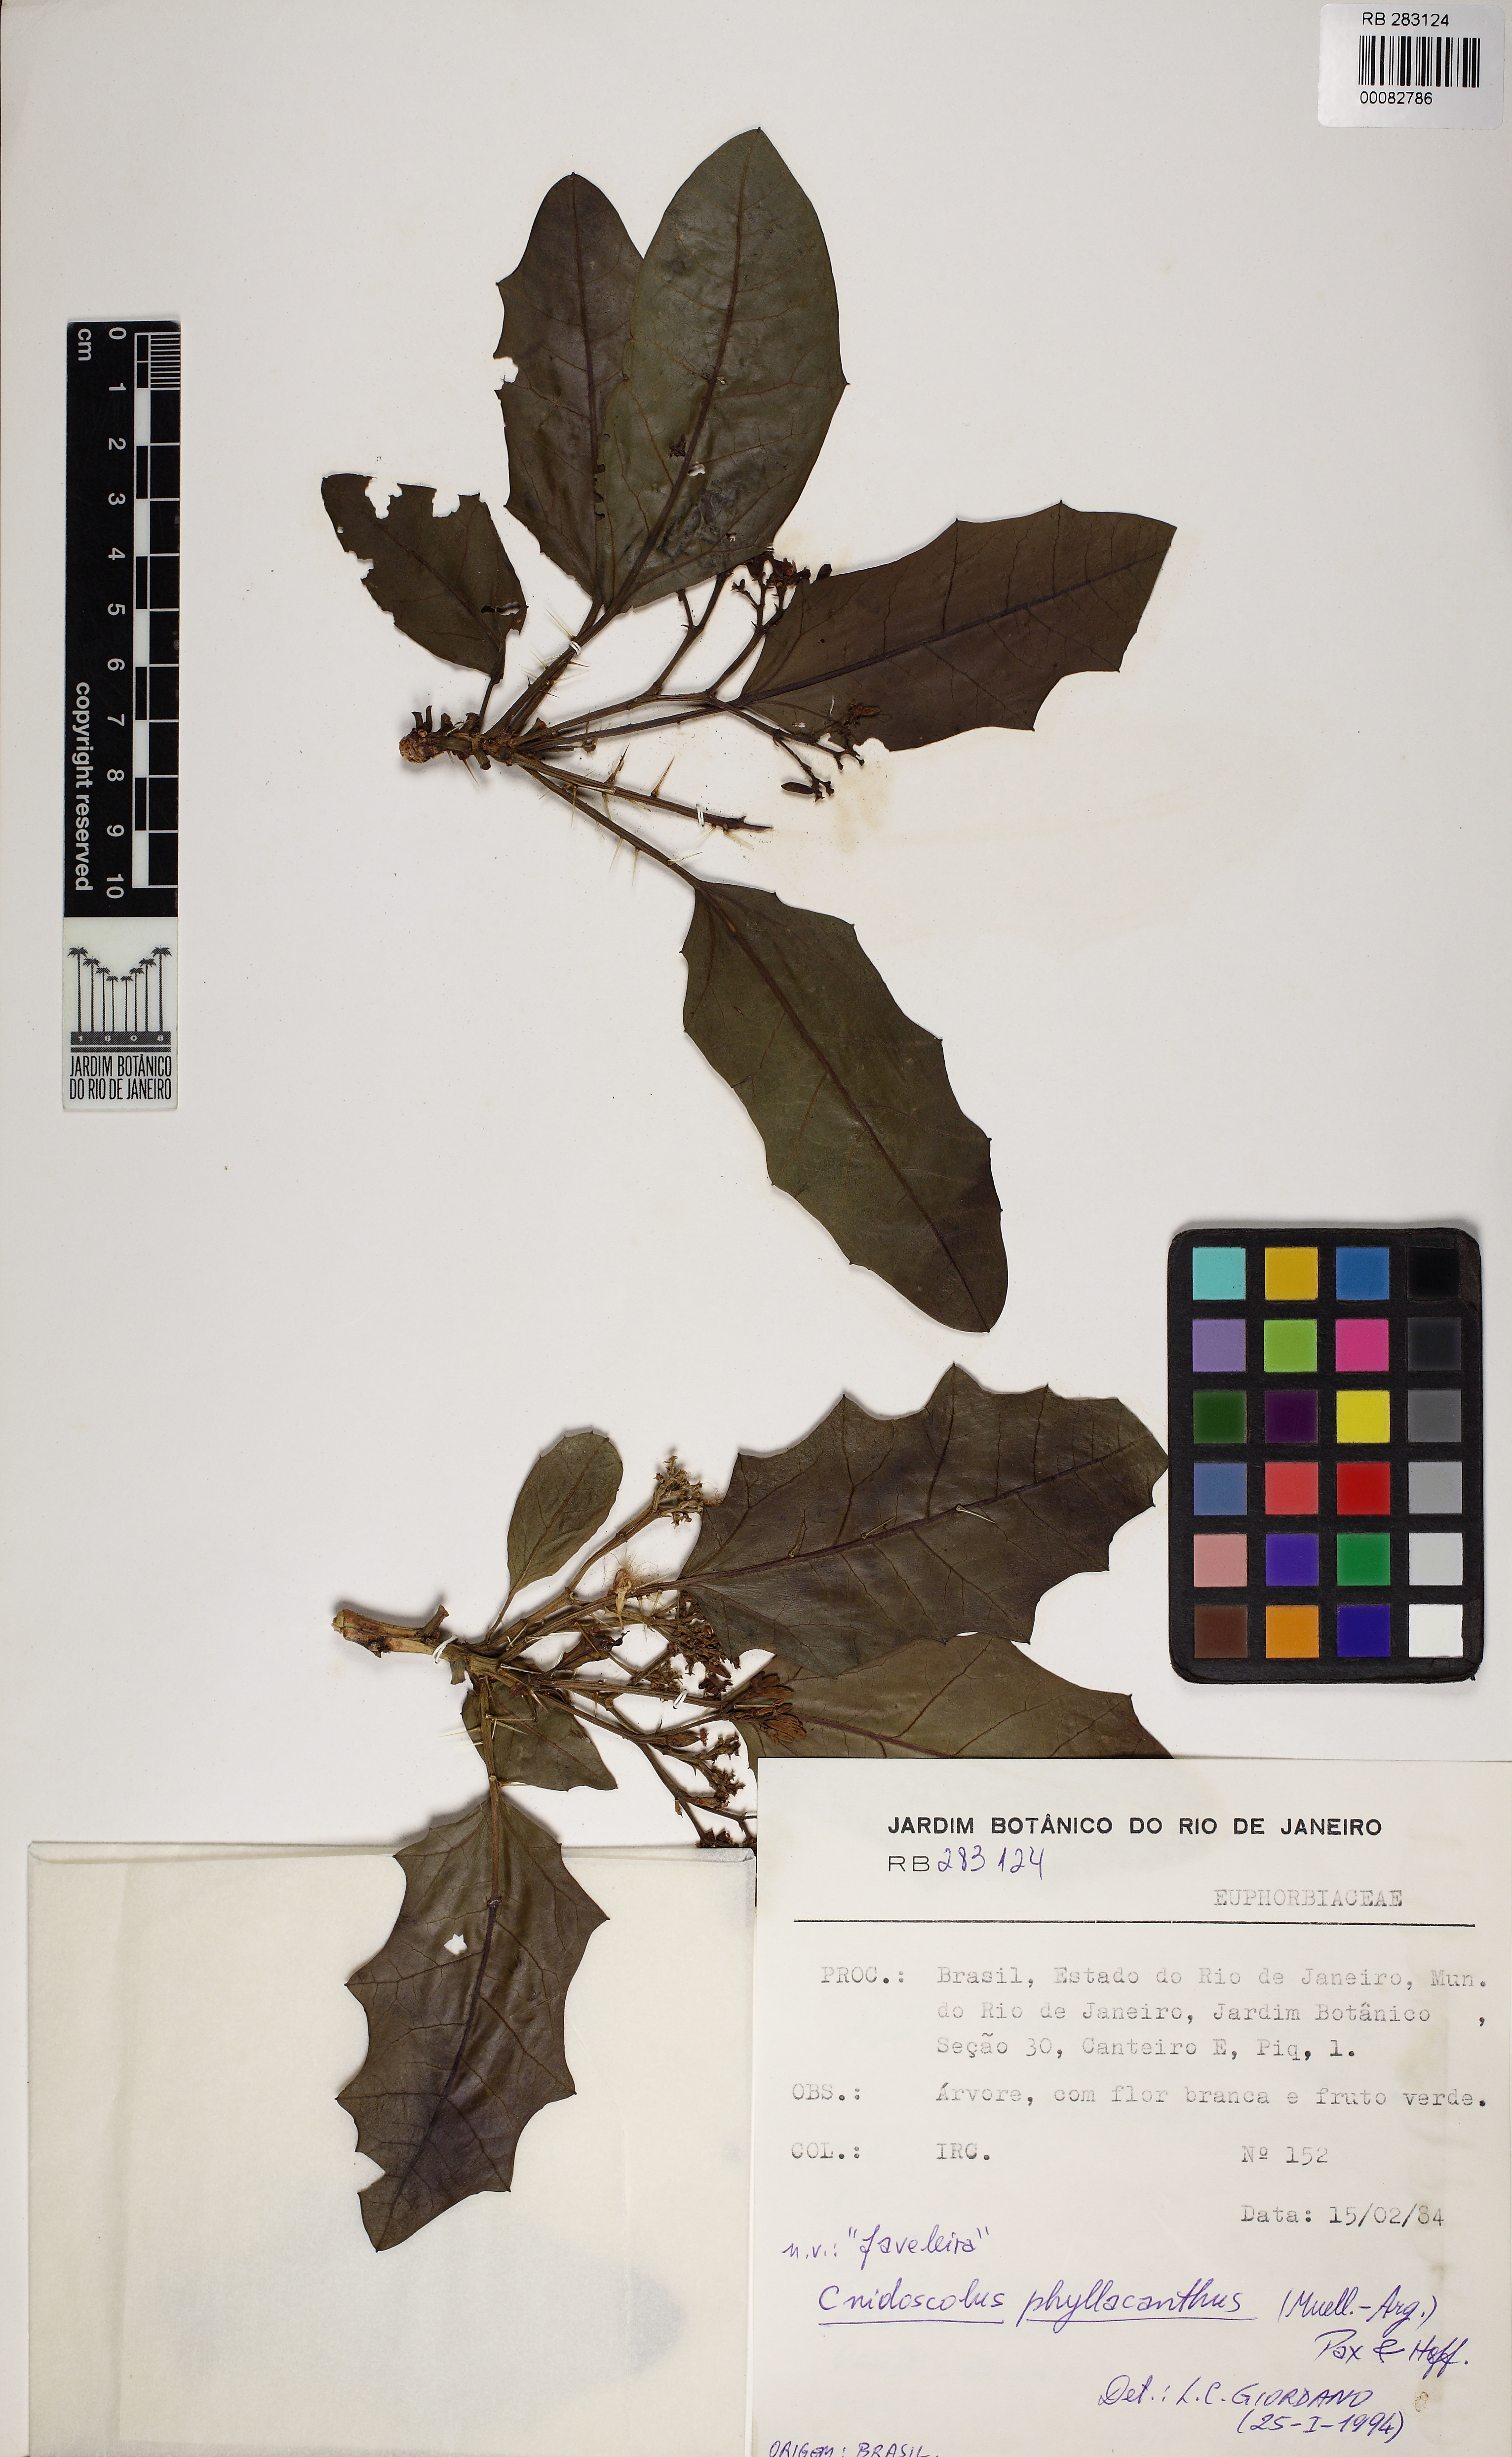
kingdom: Plantae
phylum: Tracheophyta
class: Magnoliopsida
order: Malpighiales
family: Euphorbiaceae
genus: Cnidoscolus
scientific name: Cnidoscolus quercifolius
